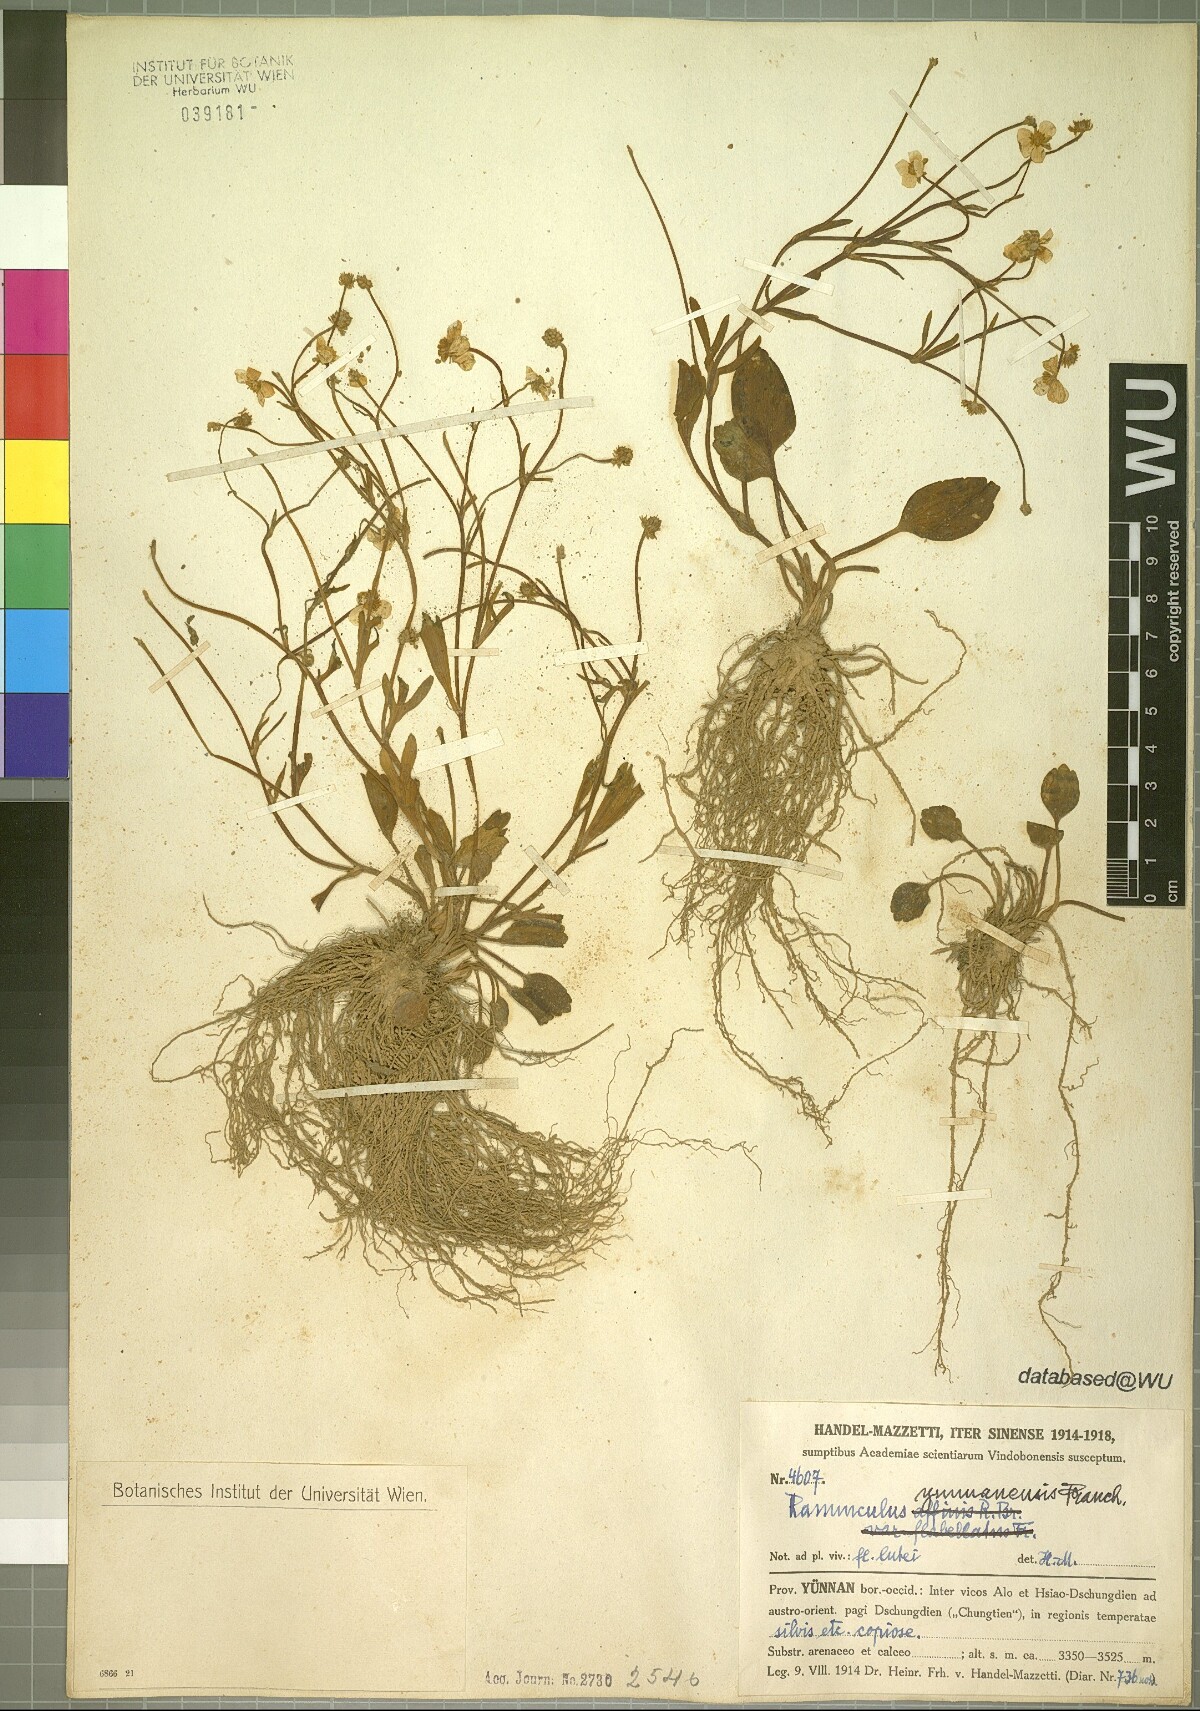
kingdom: Plantae
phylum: Tracheophyta
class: Magnoliopsida
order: Ranunculales
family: Ranunculaceae
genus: Ranunculus
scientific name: Ranunculus yunnanensis
